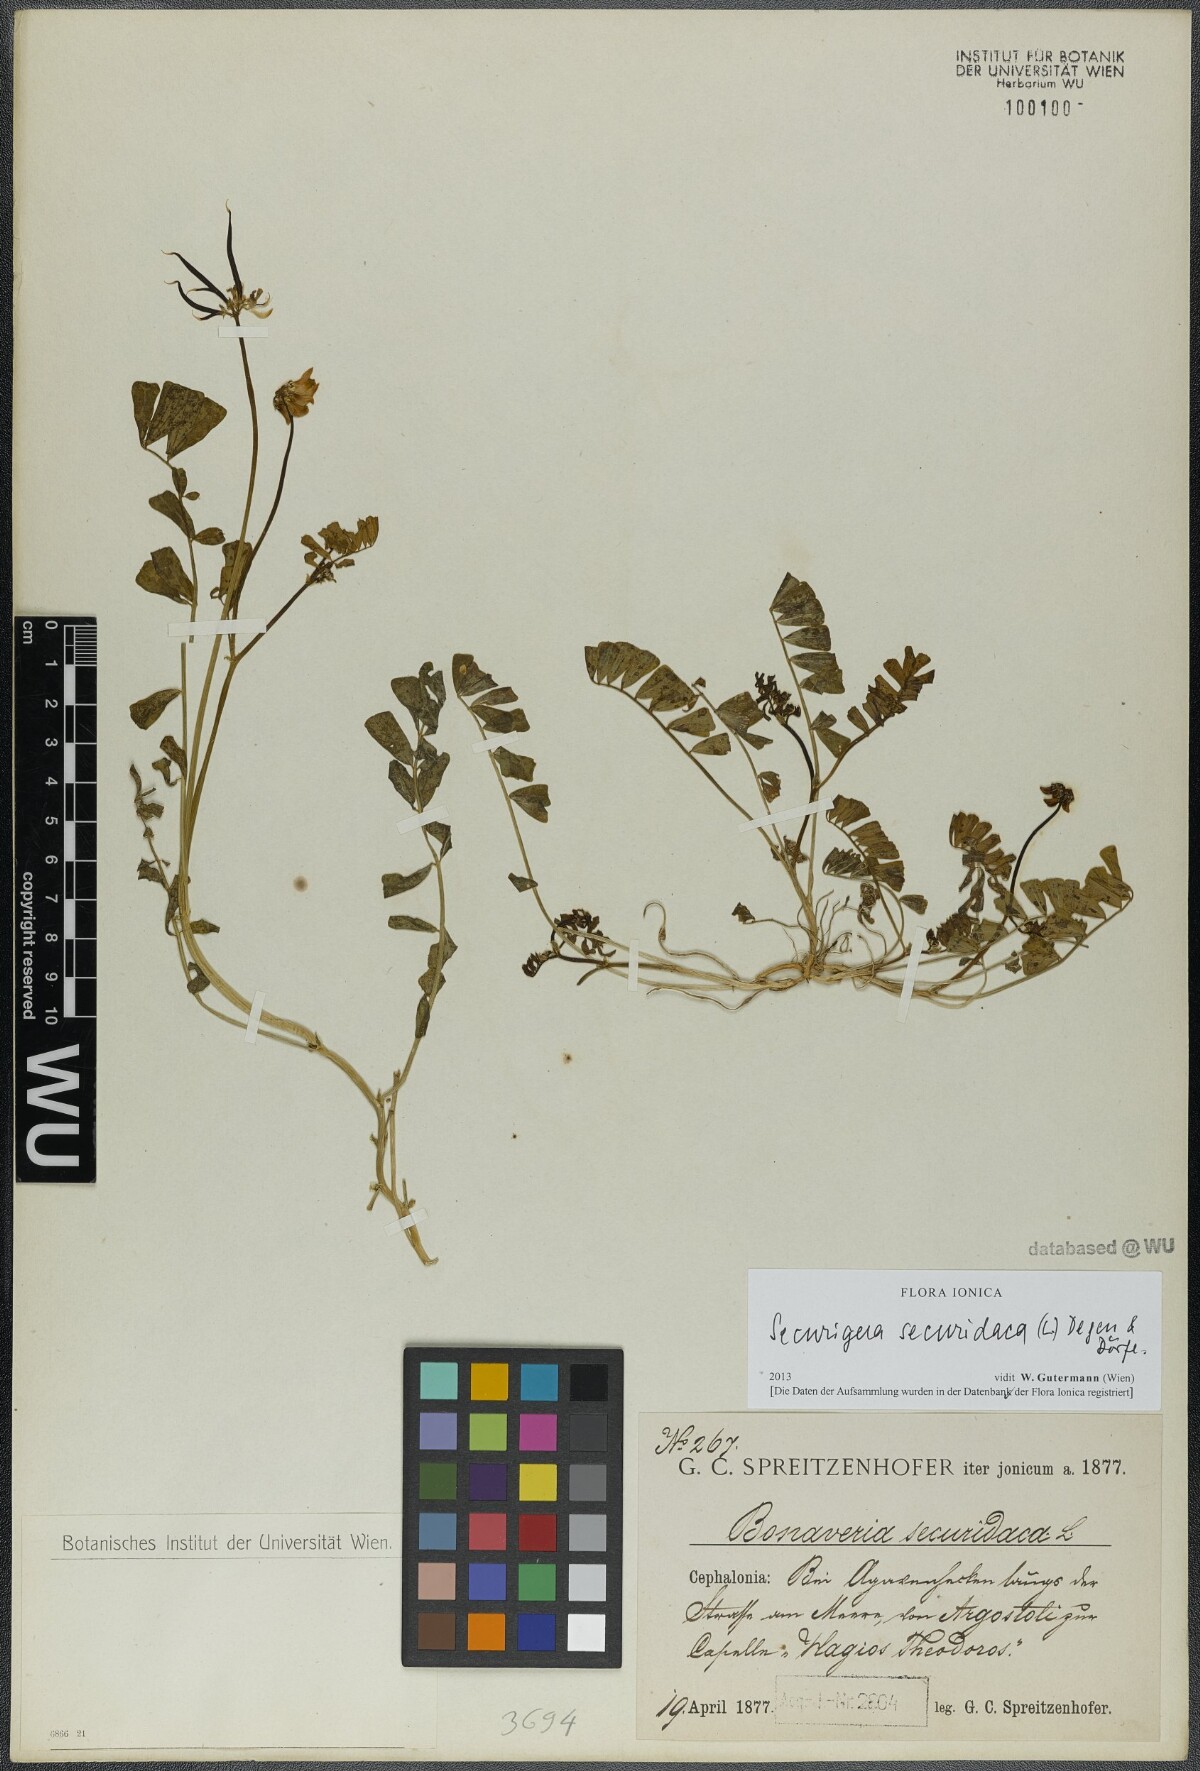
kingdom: Plantae
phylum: Tracheophyta
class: Magnoliopsida
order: Fabales
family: Fabaceae
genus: Coronilla
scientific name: Coronilla securidaca
